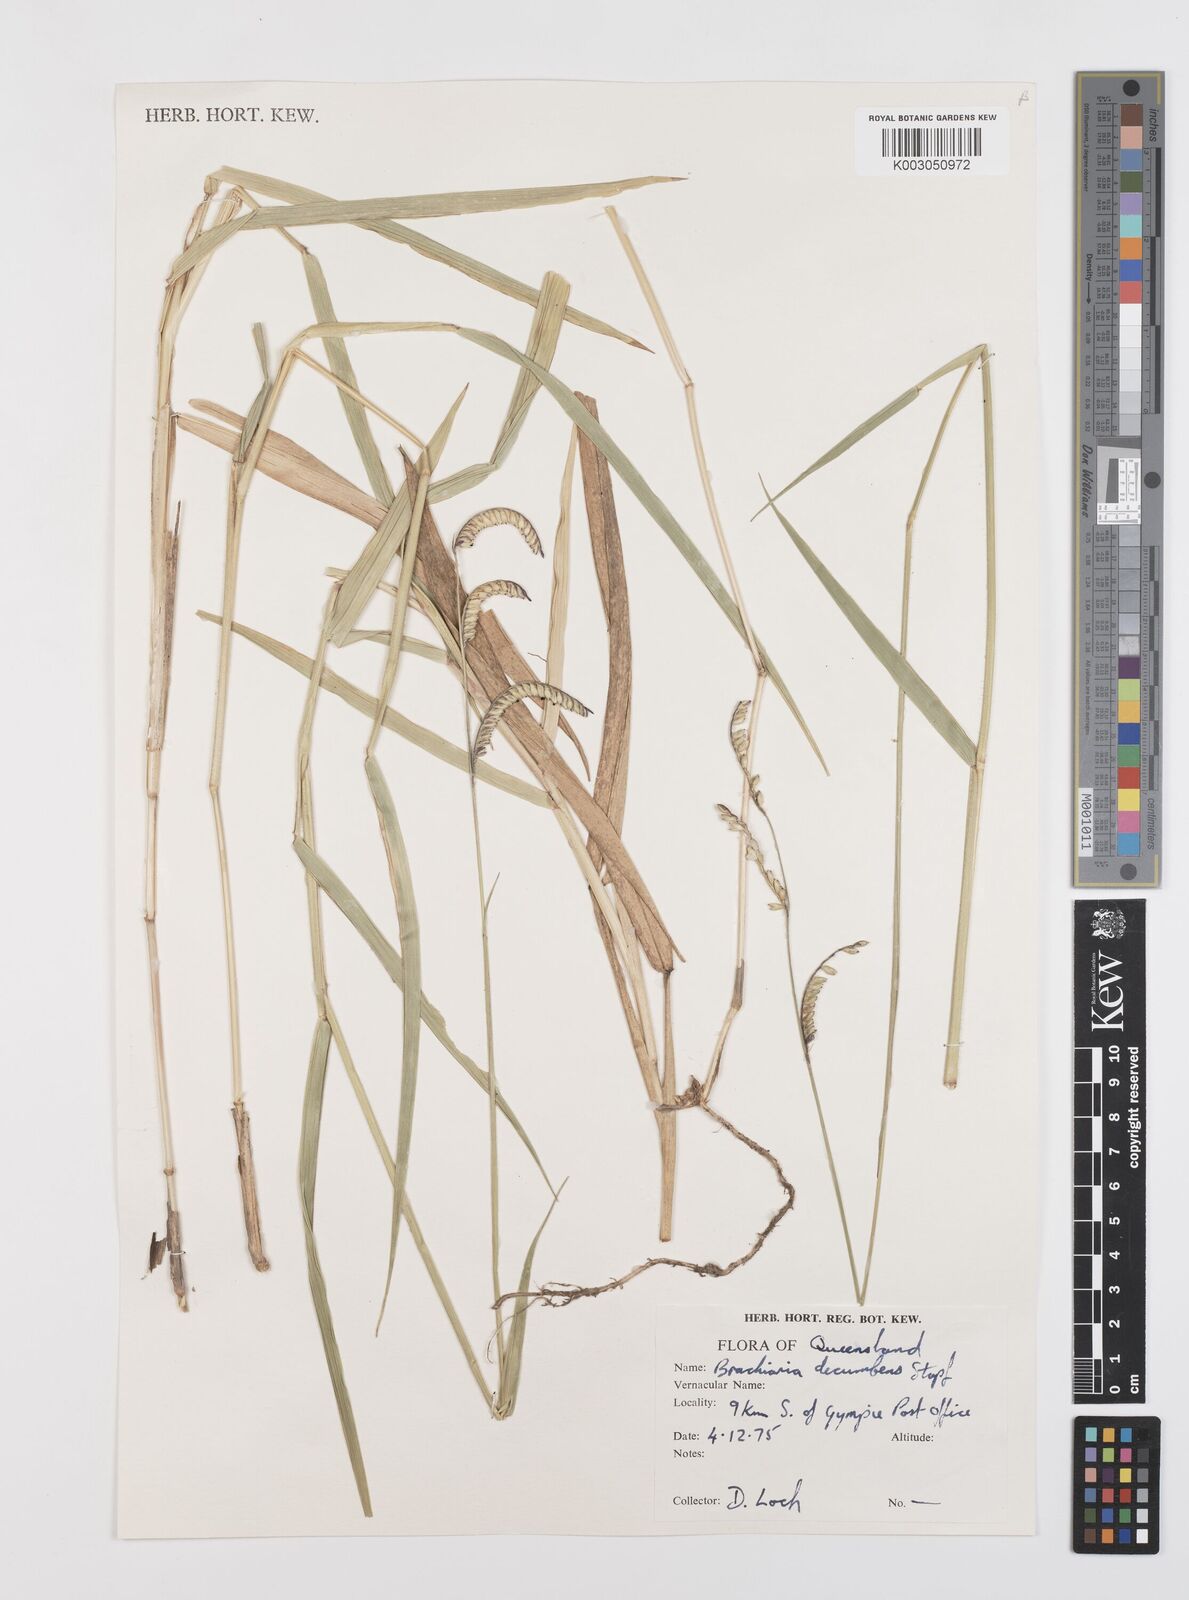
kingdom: Plantae
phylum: Tracheophyta
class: Liliopsida
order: Poales
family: Poaceae
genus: Urochloa
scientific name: Urochloa eminii
